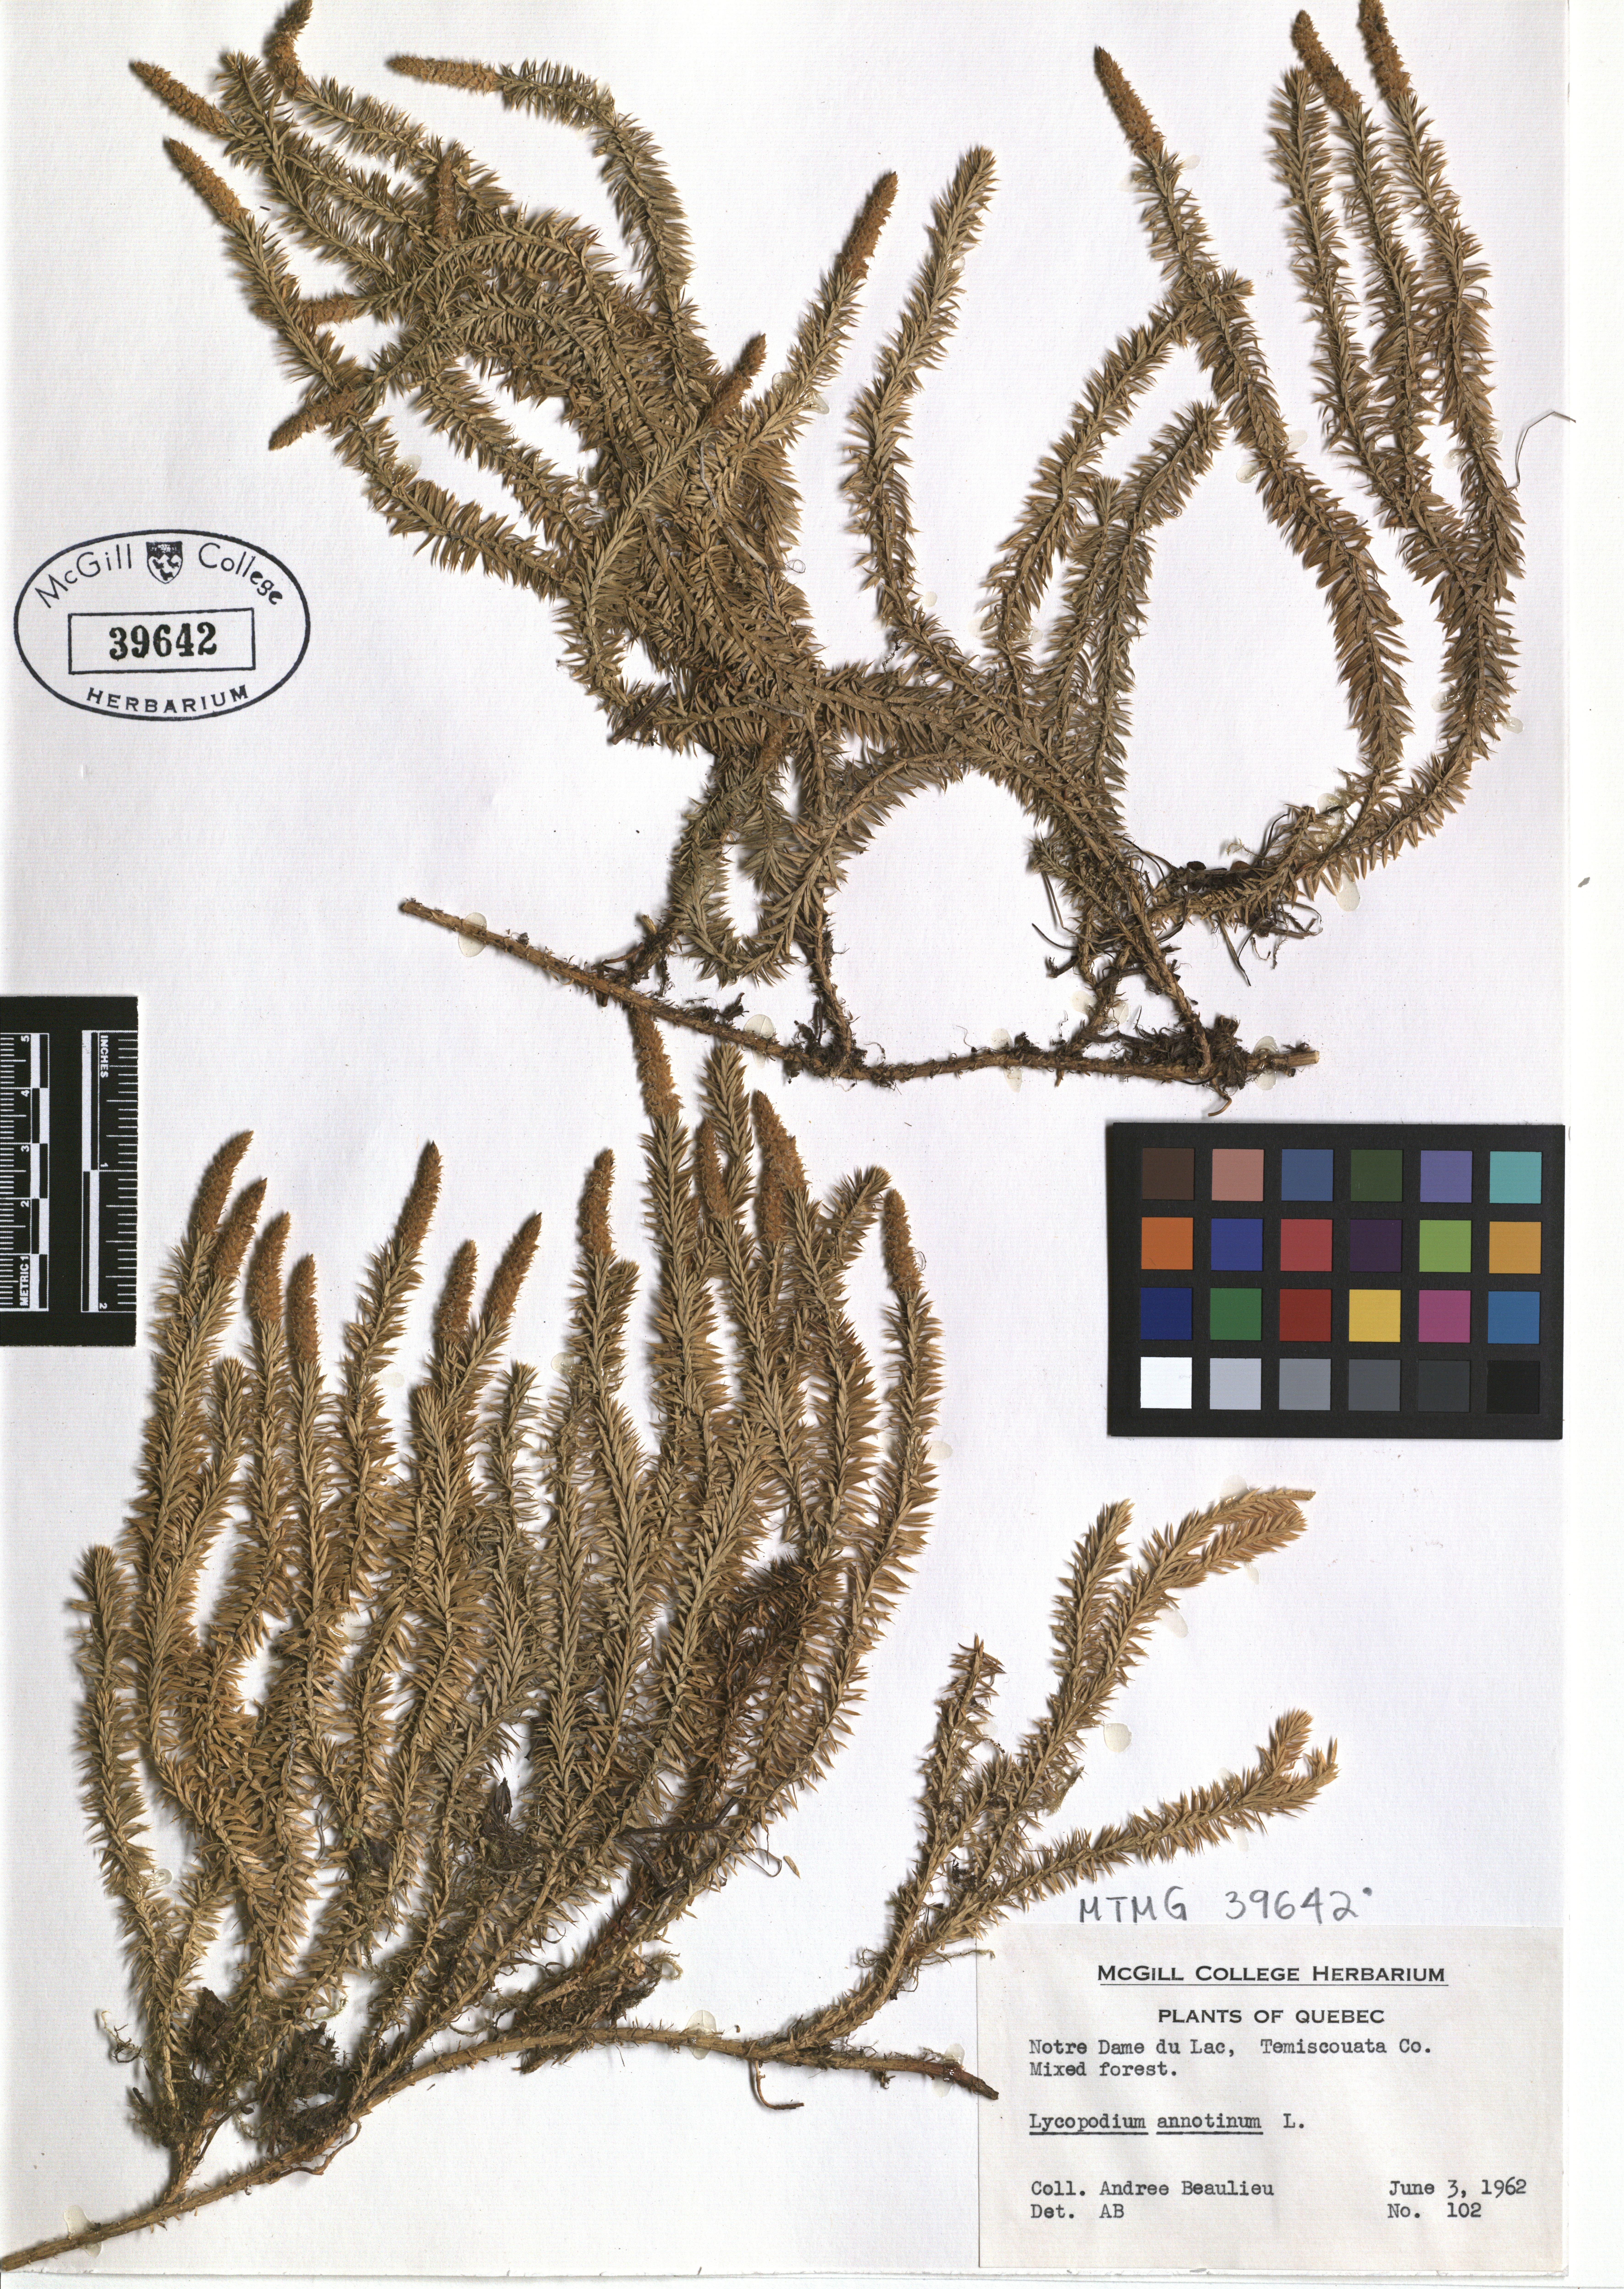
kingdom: Plantae
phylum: Tracheophyta
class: Lycopodiopsida
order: Lycopodiales
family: Lycopodiaceae
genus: Spinulum
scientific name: Spinulum annotinum
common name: Interrupted club-moss
